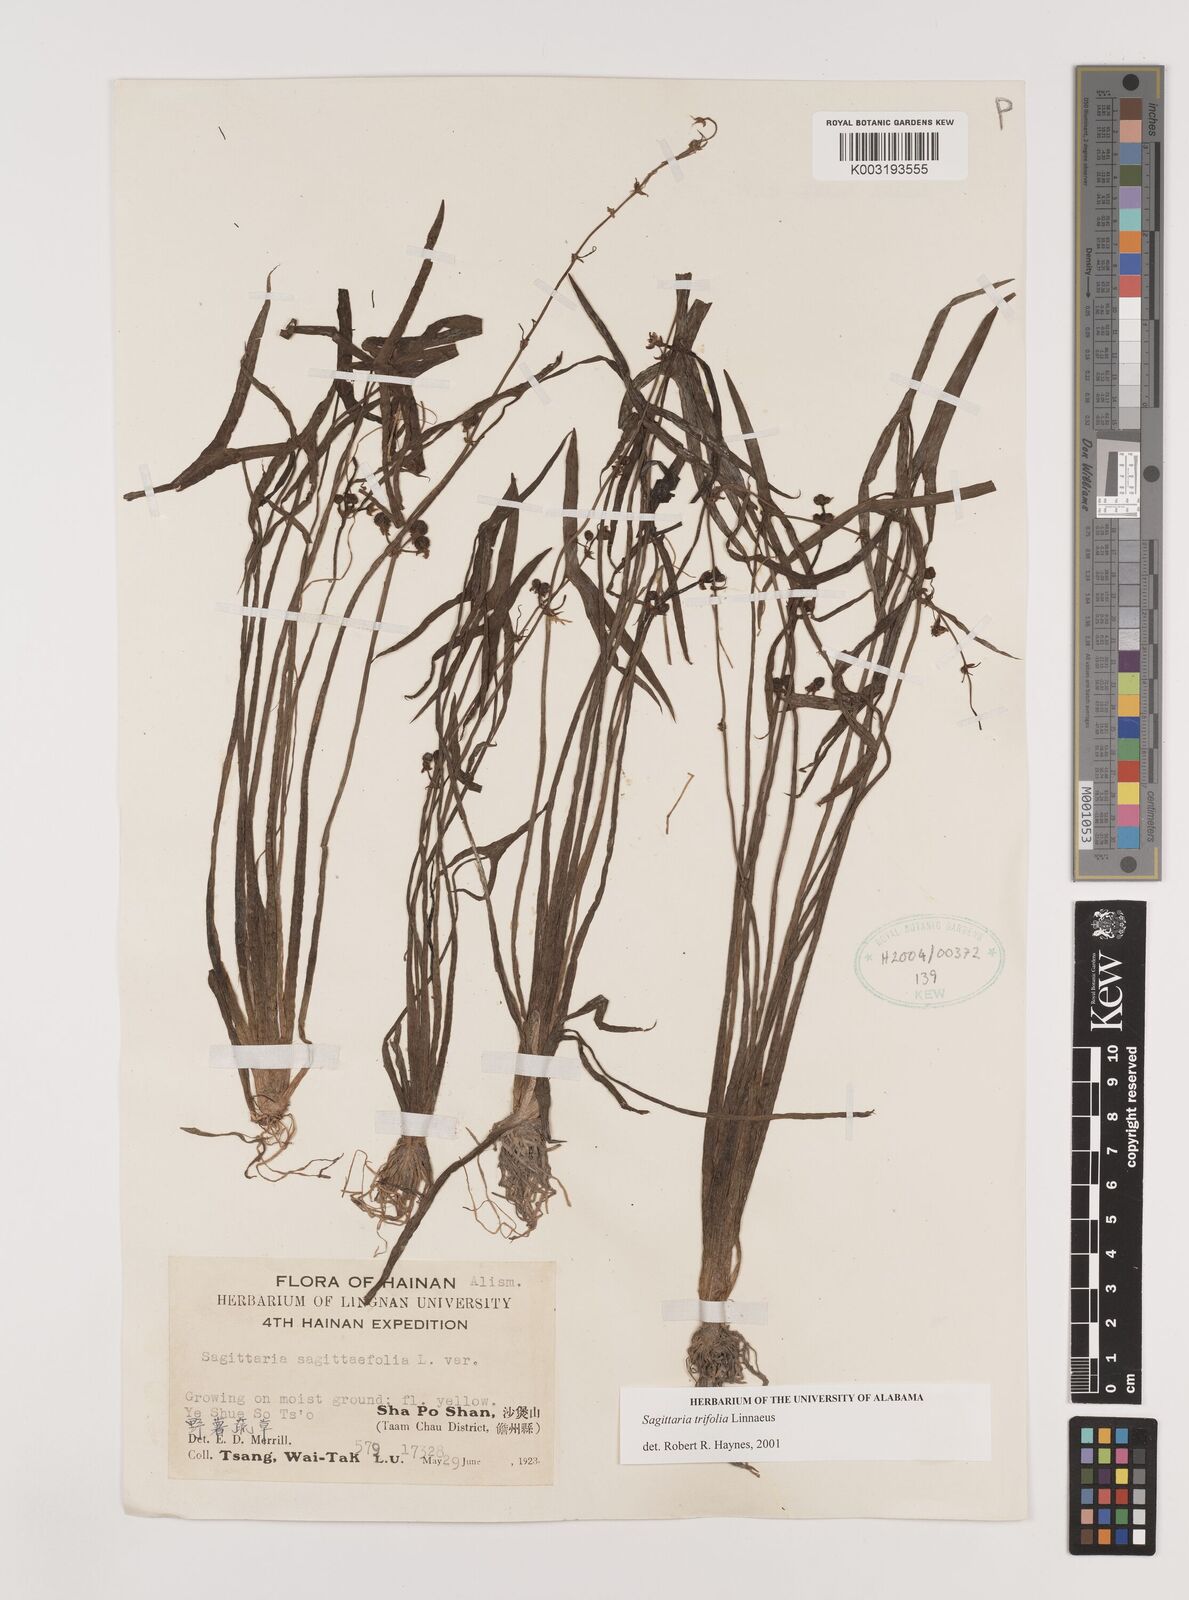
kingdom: Plantae
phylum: Tracheophyta
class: Liliopsida
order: Alismatales
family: Alismataceae
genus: Sagittaria
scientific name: Sagittaria trifolia
